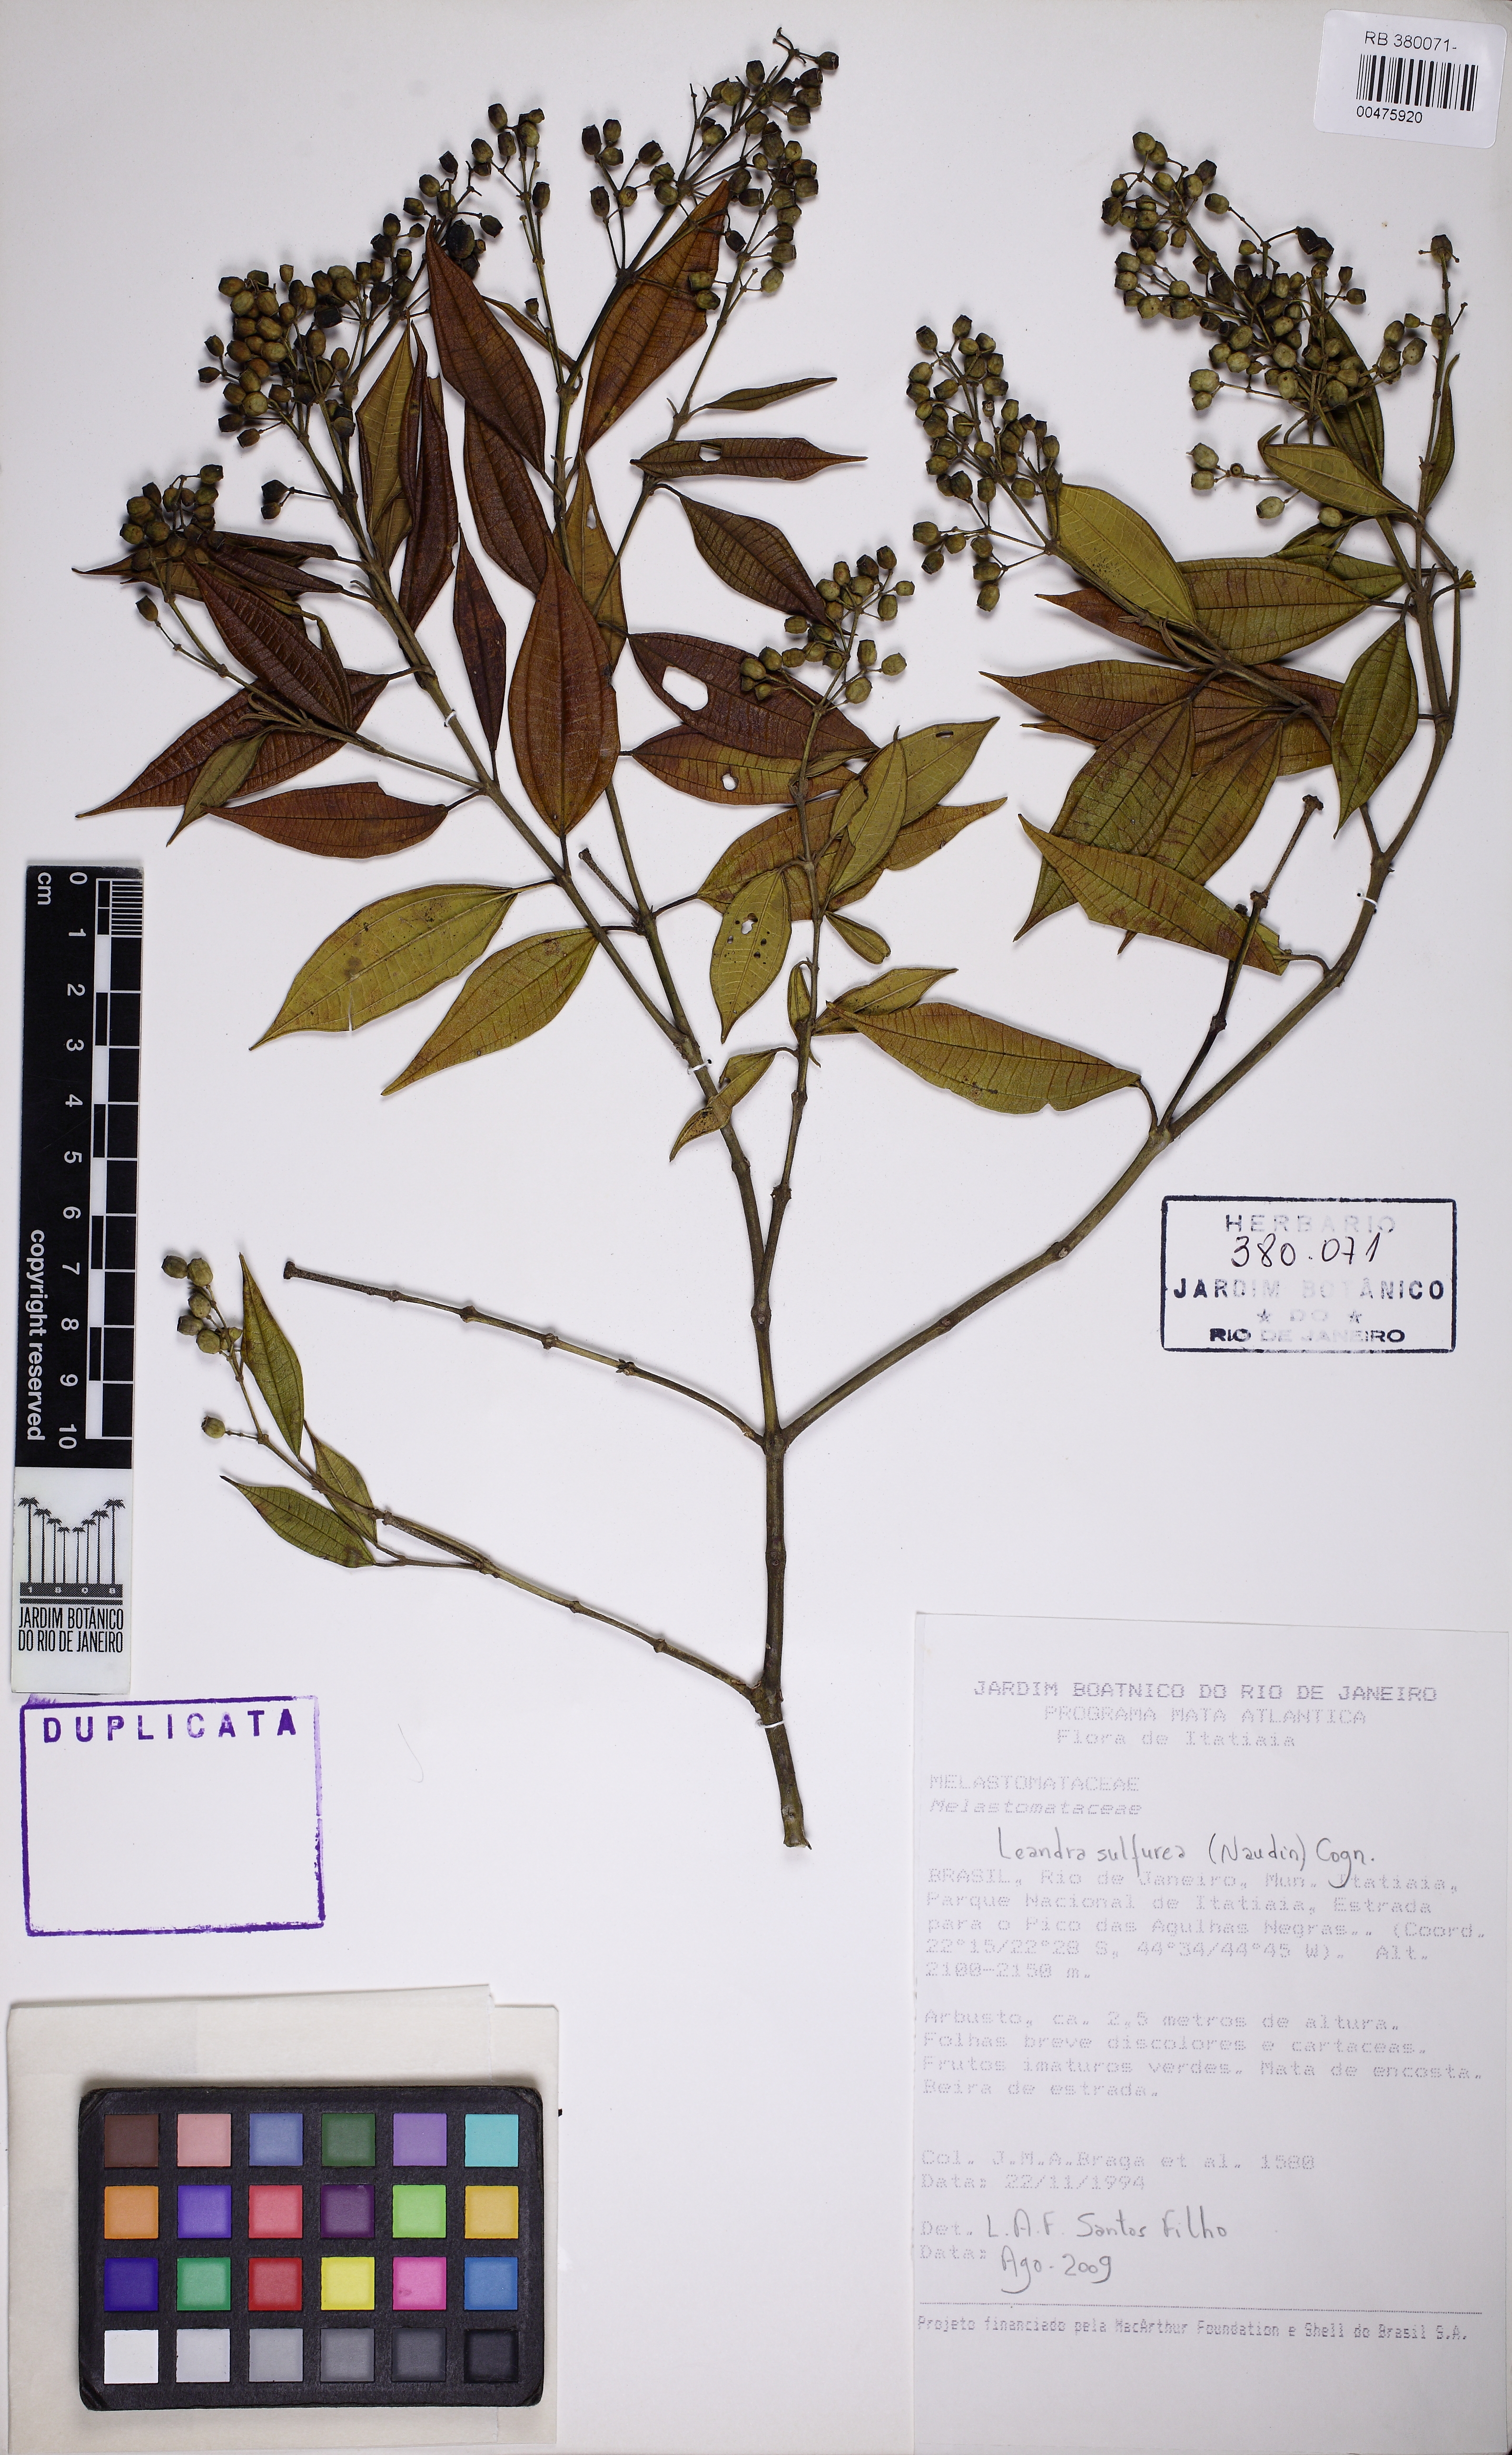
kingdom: Plantae
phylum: Tracheophyta
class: Magnoliopsida
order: Myrtales
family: Melastomataceae
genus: Miconia
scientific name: Miconia
